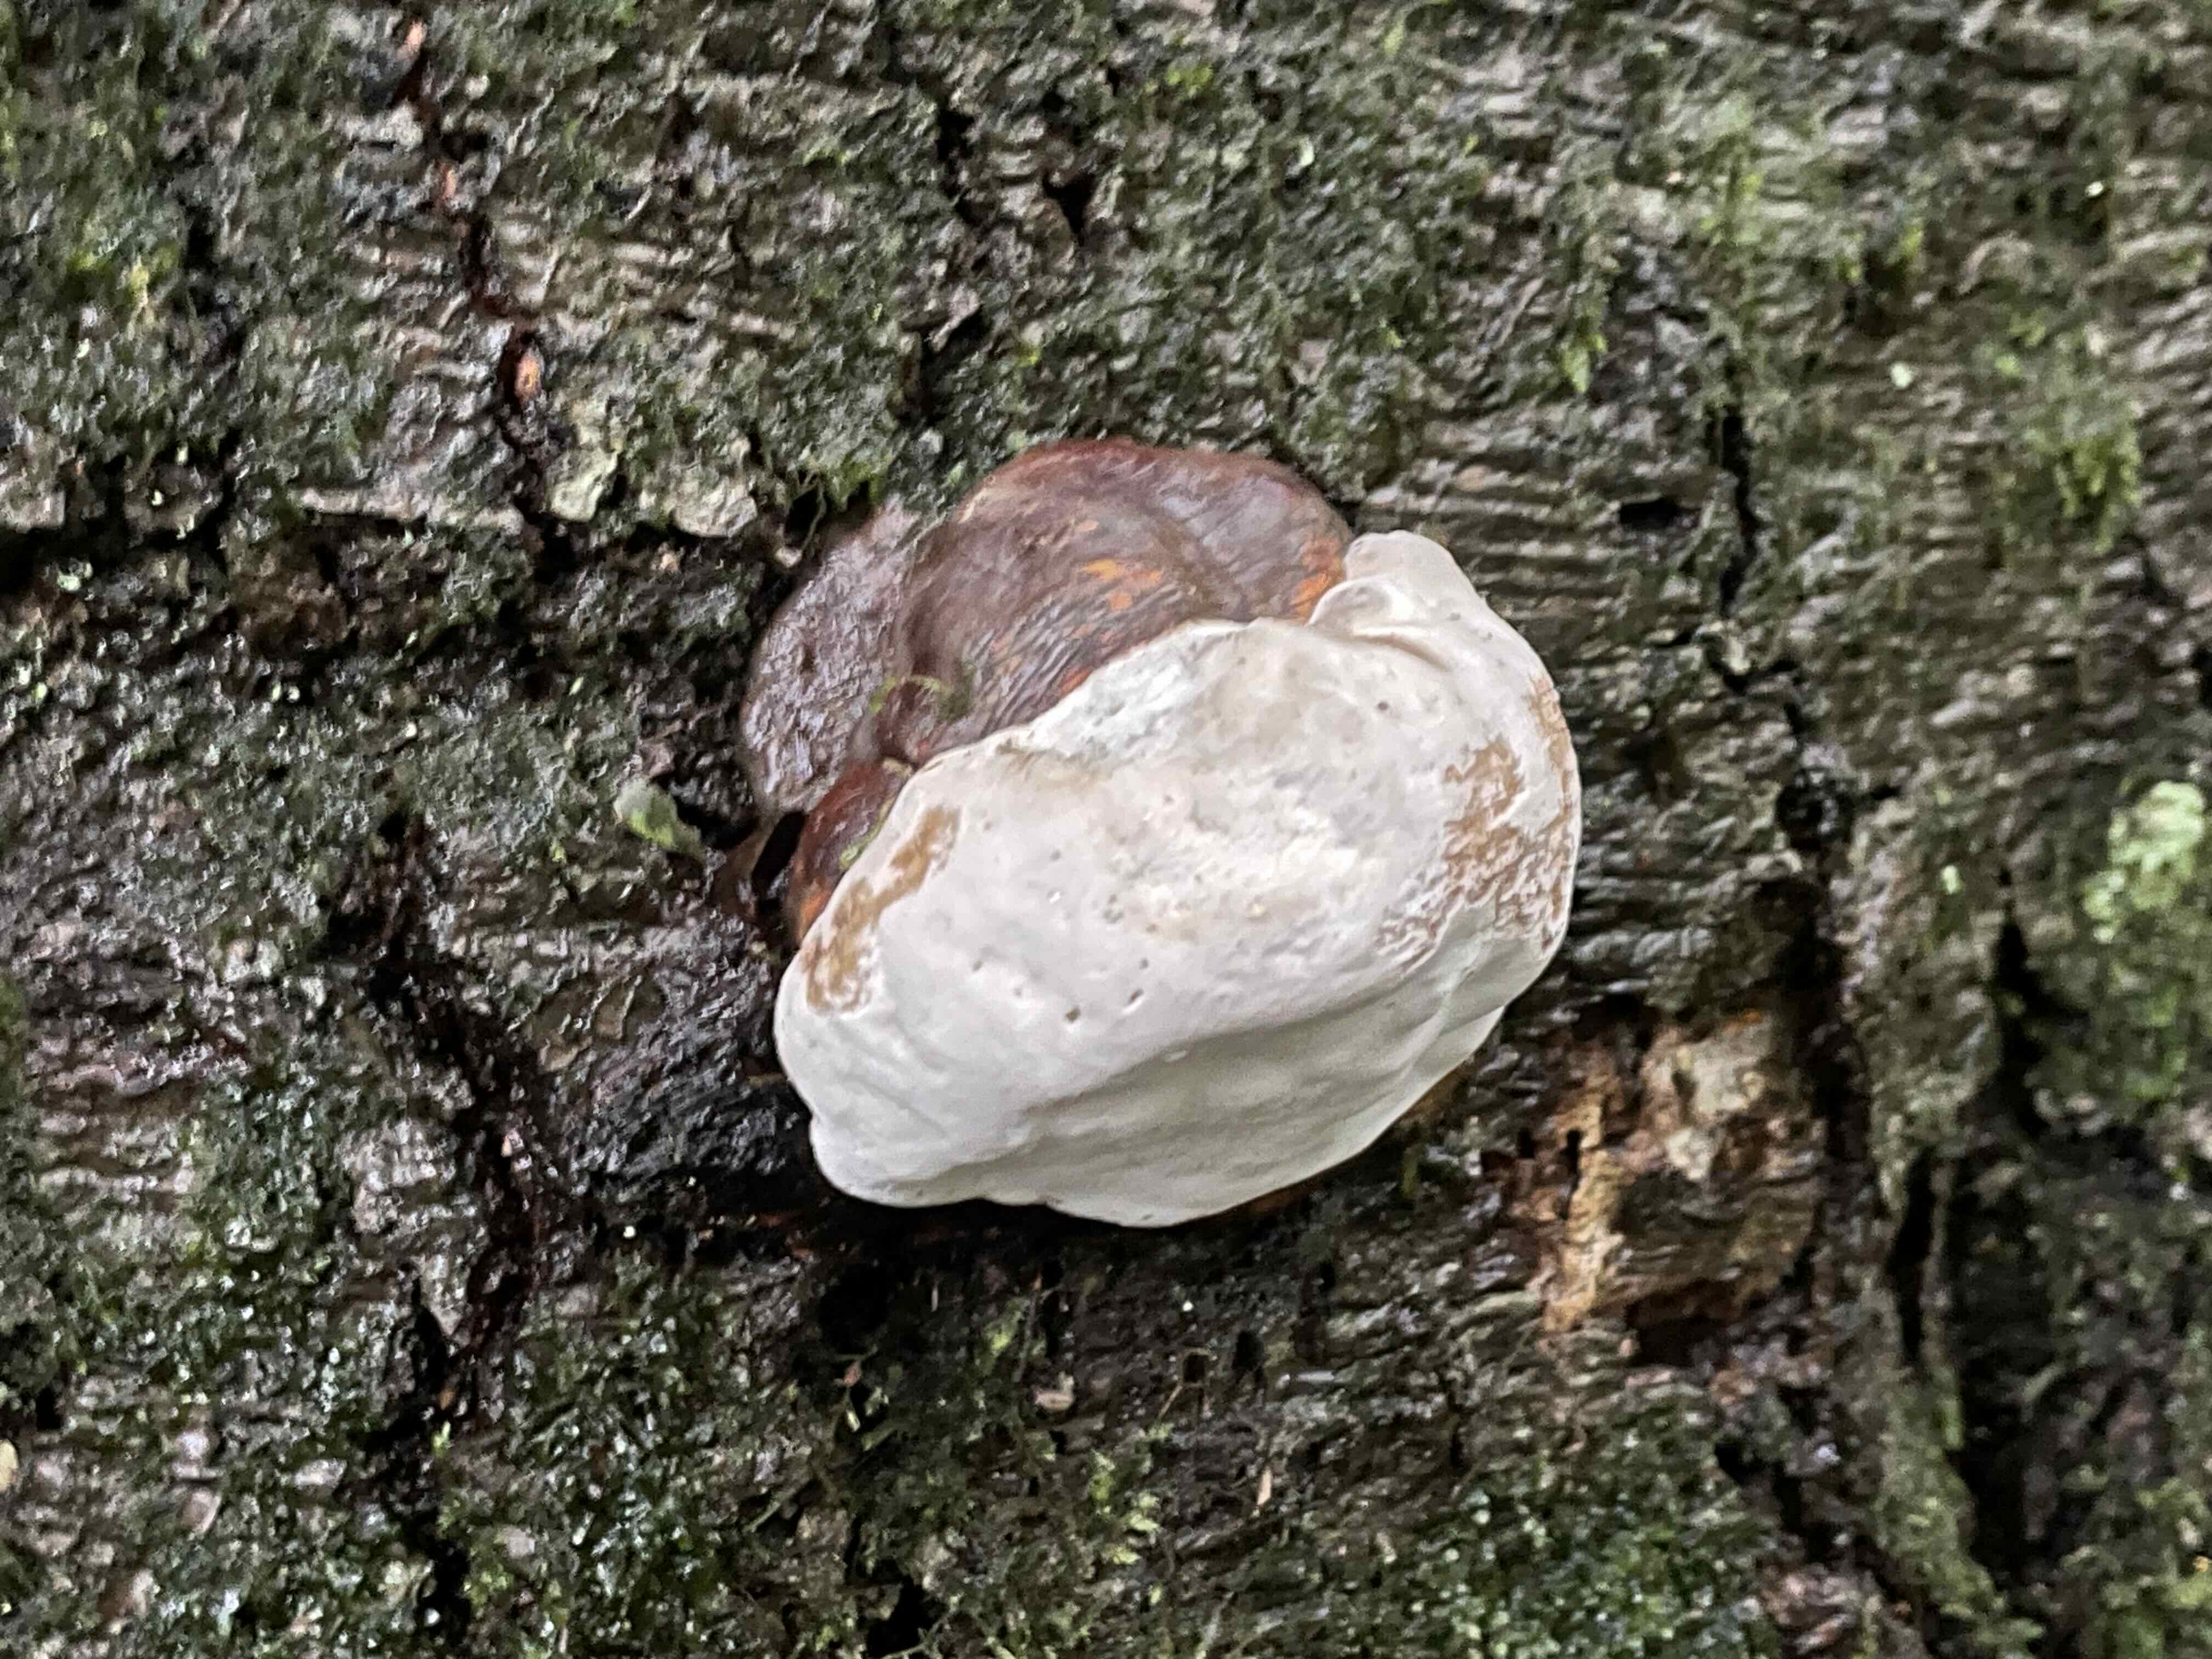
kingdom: Fungi
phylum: Basidiomycota
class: Agaricomycetes
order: Polyporales
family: Polyporaceae
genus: Ganoderma
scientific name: Ganoderma pfeifferi
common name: kobberrød lakporesvamp
